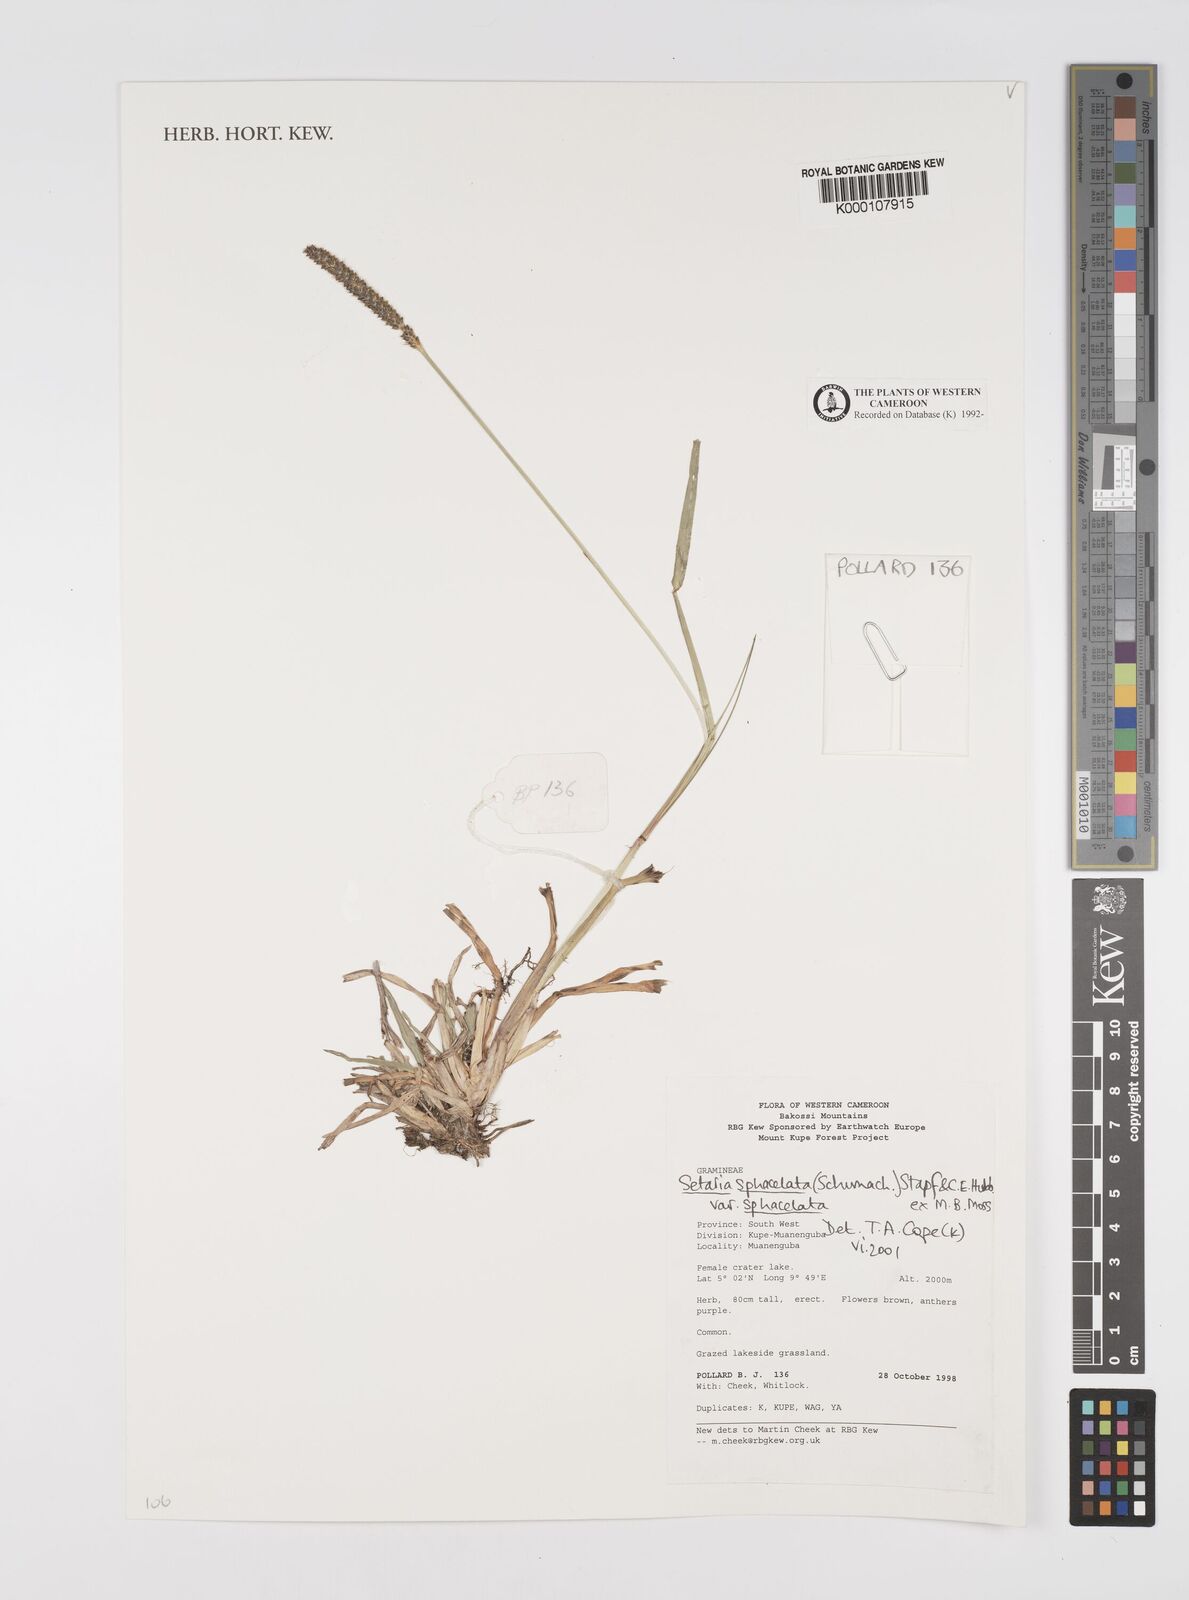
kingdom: Plantae
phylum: Tracheophyta
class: Liliopsida
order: Poales
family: Poaceae
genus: Setaria
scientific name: Setaria sphacelata
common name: African bristlegrass
